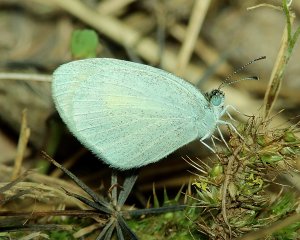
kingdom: Animalia
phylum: Arthropoda
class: Insecta
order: Lepidoptera
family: Pieridae
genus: Eurema
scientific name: Eurema daira
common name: Barred Yellow
